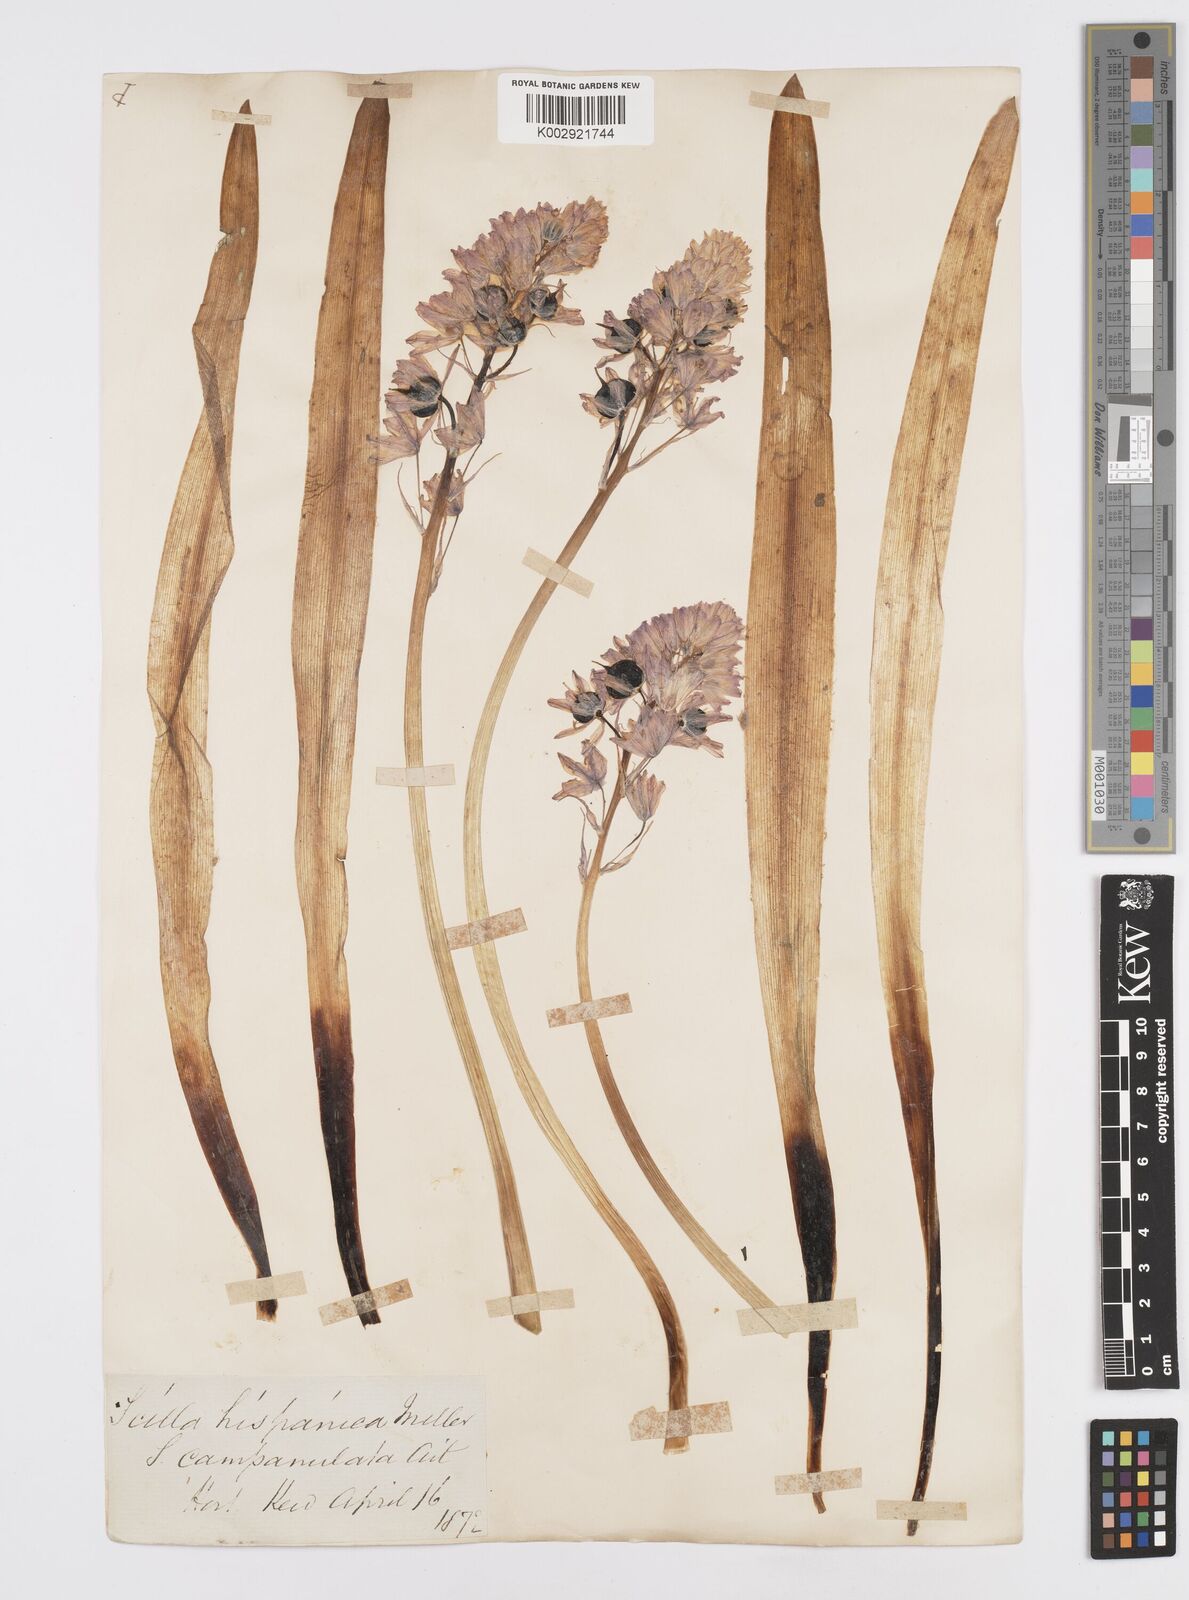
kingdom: Plantae
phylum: Tracheophyta
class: Liliopsida
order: Asparagales
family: Asparagaceae
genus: Hyacinthoides
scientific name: Hyacinthoides hispanica
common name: Spanish bluebell
